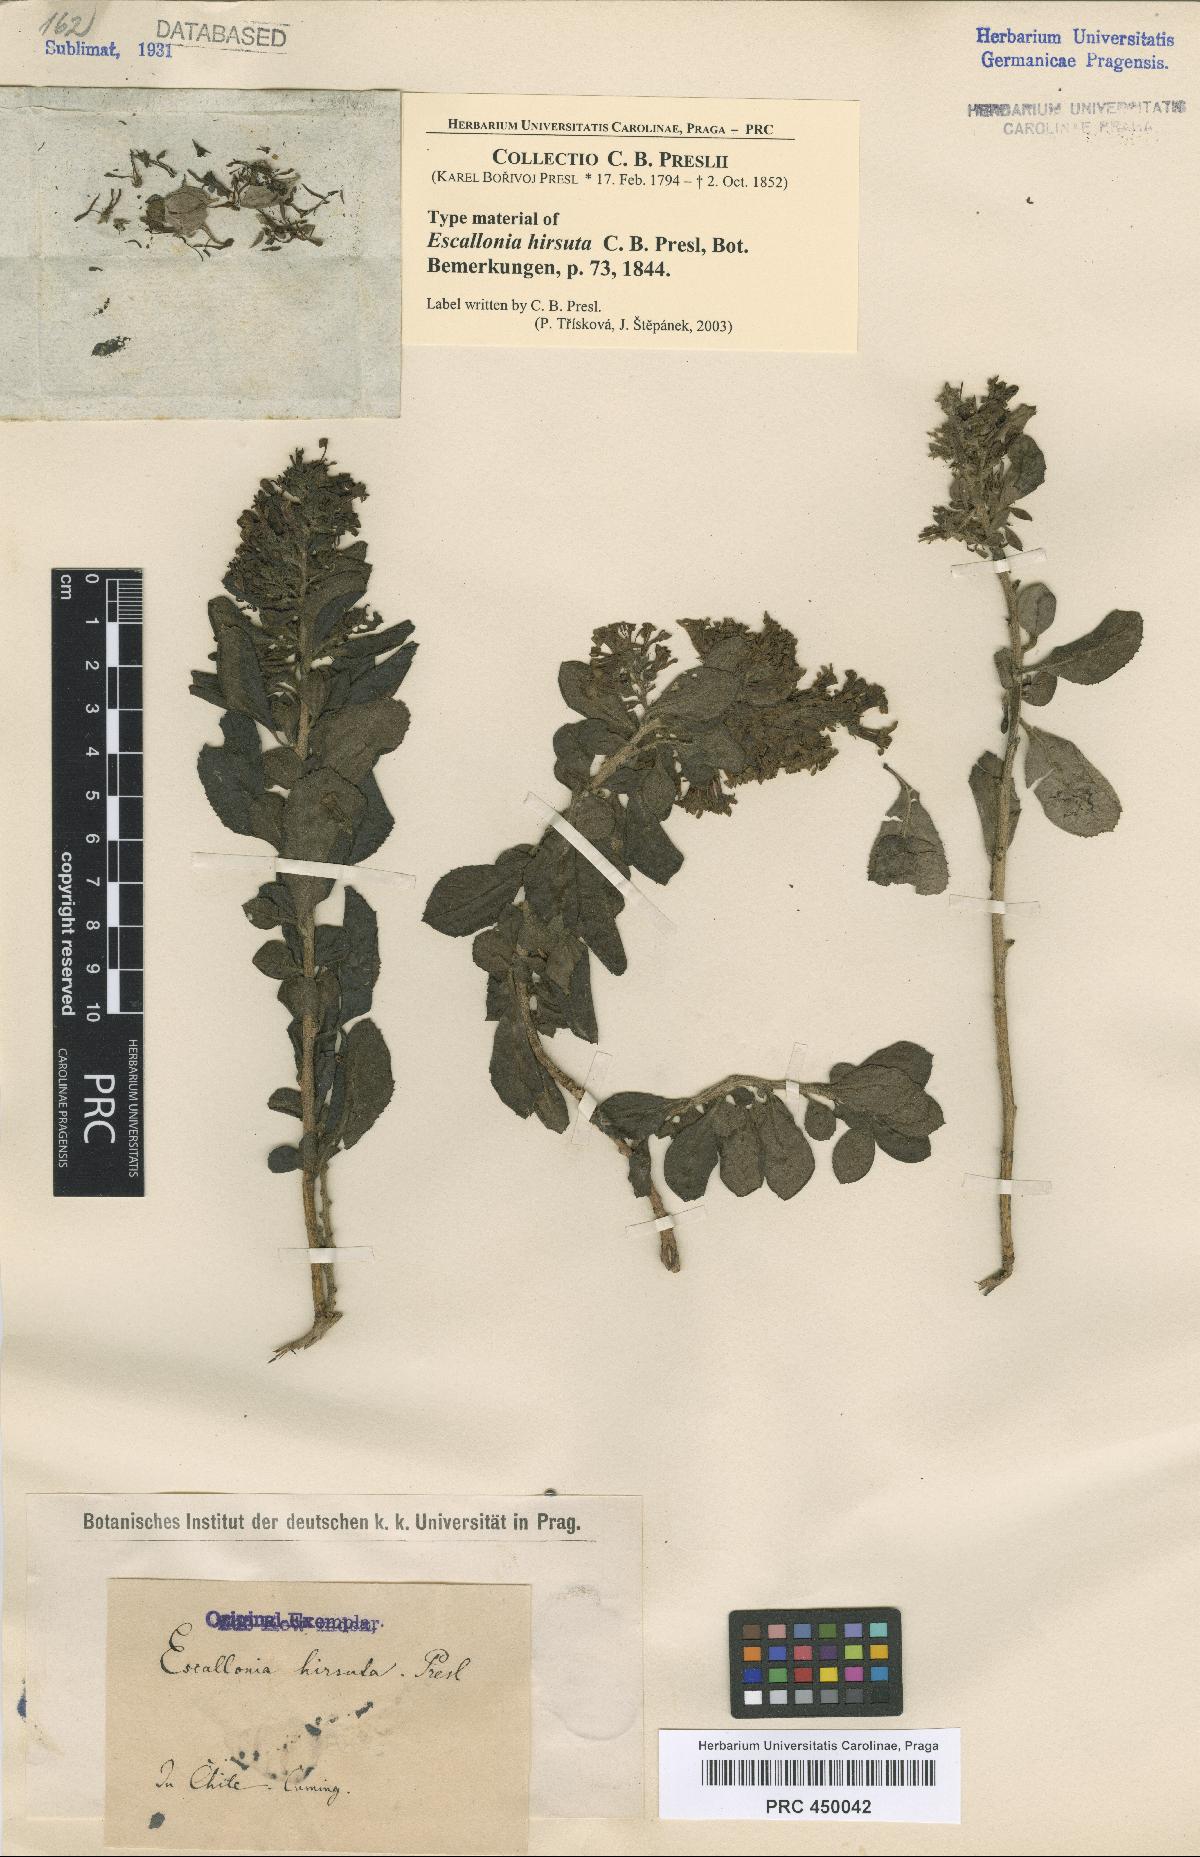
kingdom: Plantae
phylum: Tracheophyta
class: Magnoliopsida
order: Escalloniales
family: Escalloniaceae
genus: Escallonia
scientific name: Escallonia revoluta
